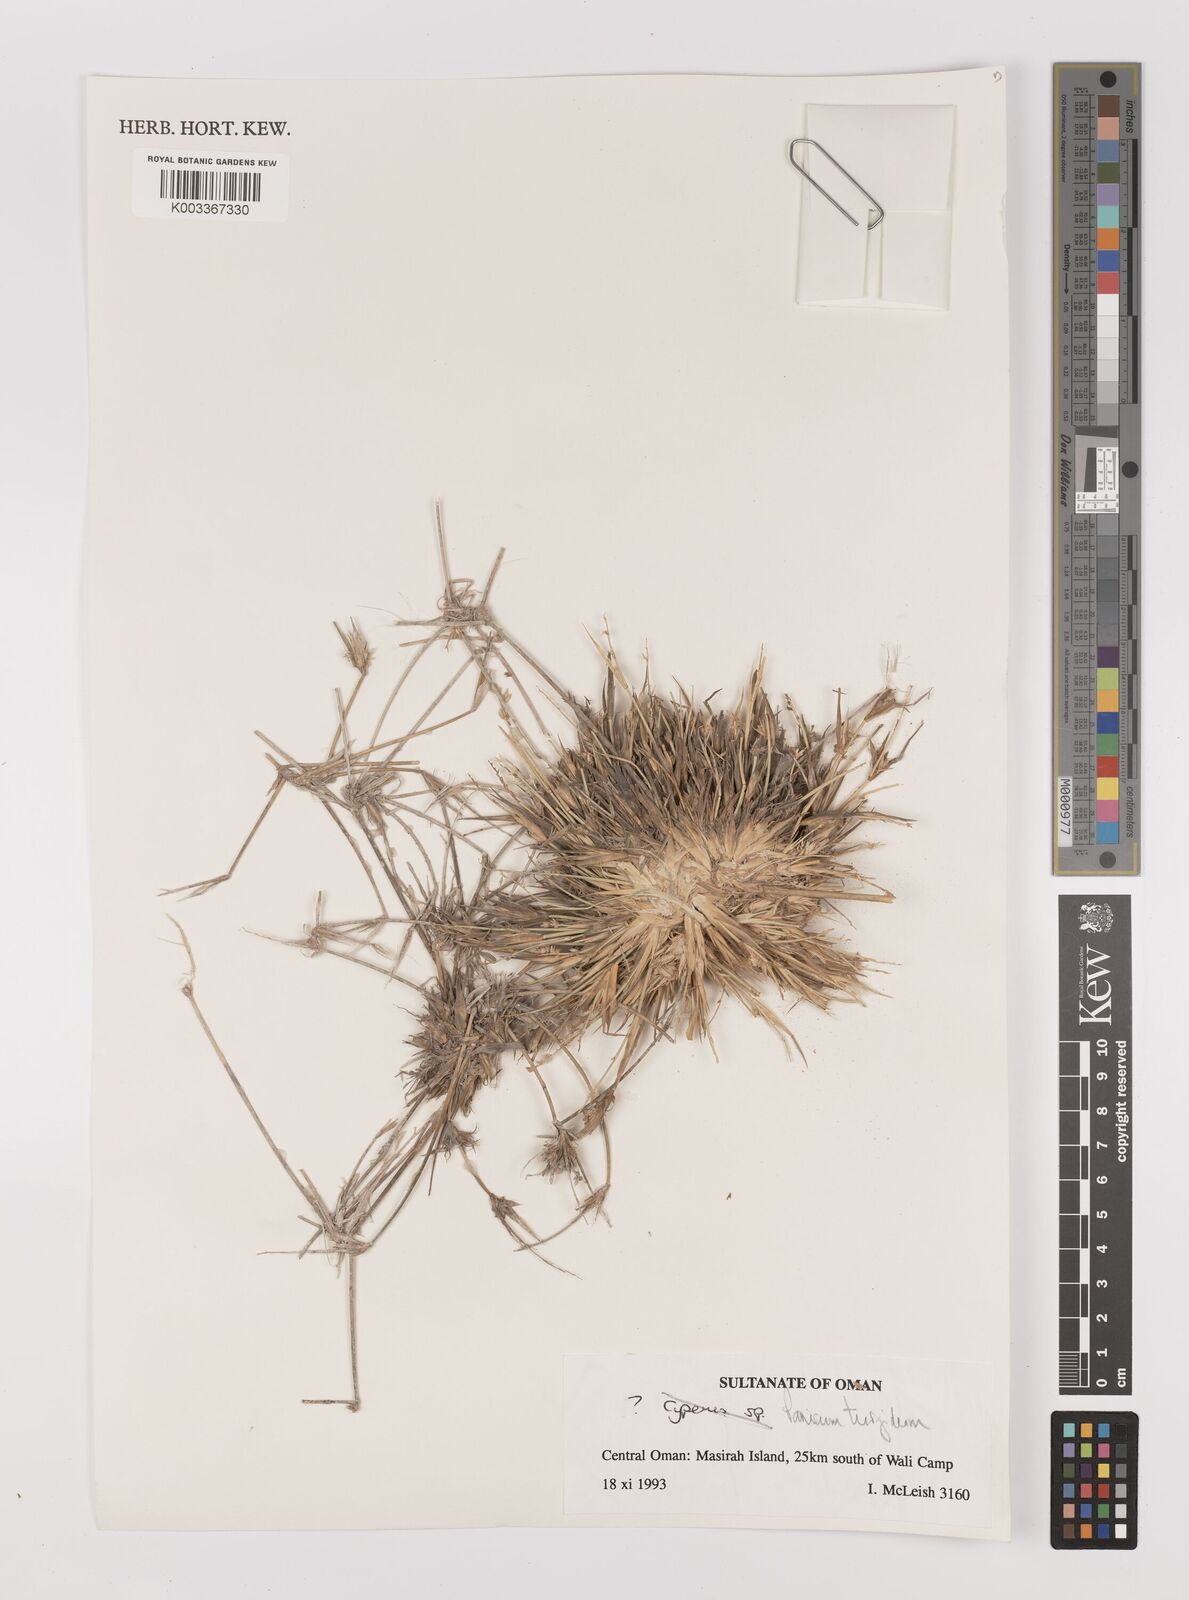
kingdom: Plantae
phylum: Tracheophyta
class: Liliopsida
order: Poales
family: Poaceae
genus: Panicum
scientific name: Panicum turgidum
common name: Desert grass
